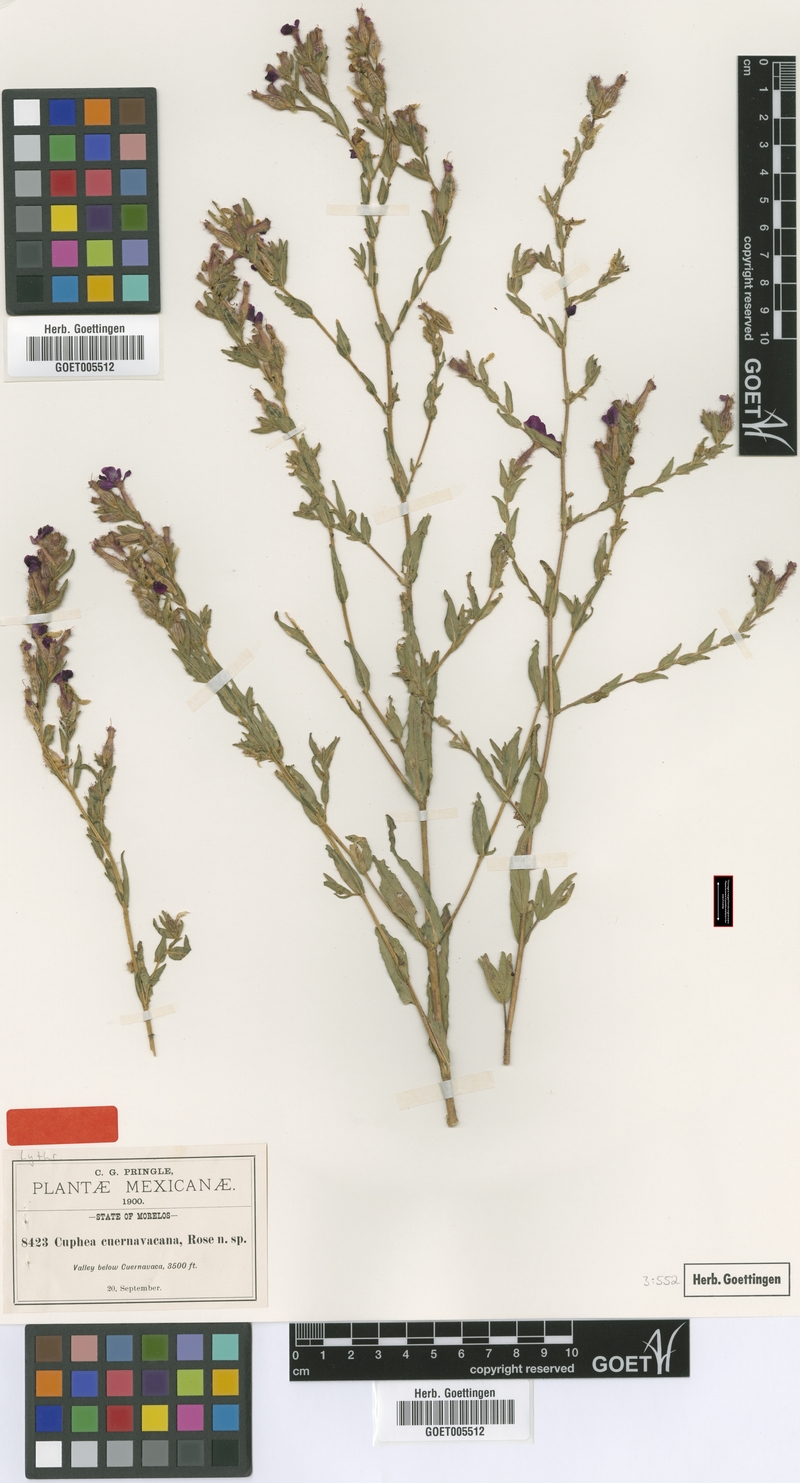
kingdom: Plantae
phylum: Tracheophyta
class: Magnoliopsida
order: Myrtales
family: Lythraceae
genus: Cuphea
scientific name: Cuphea cuernavacana
